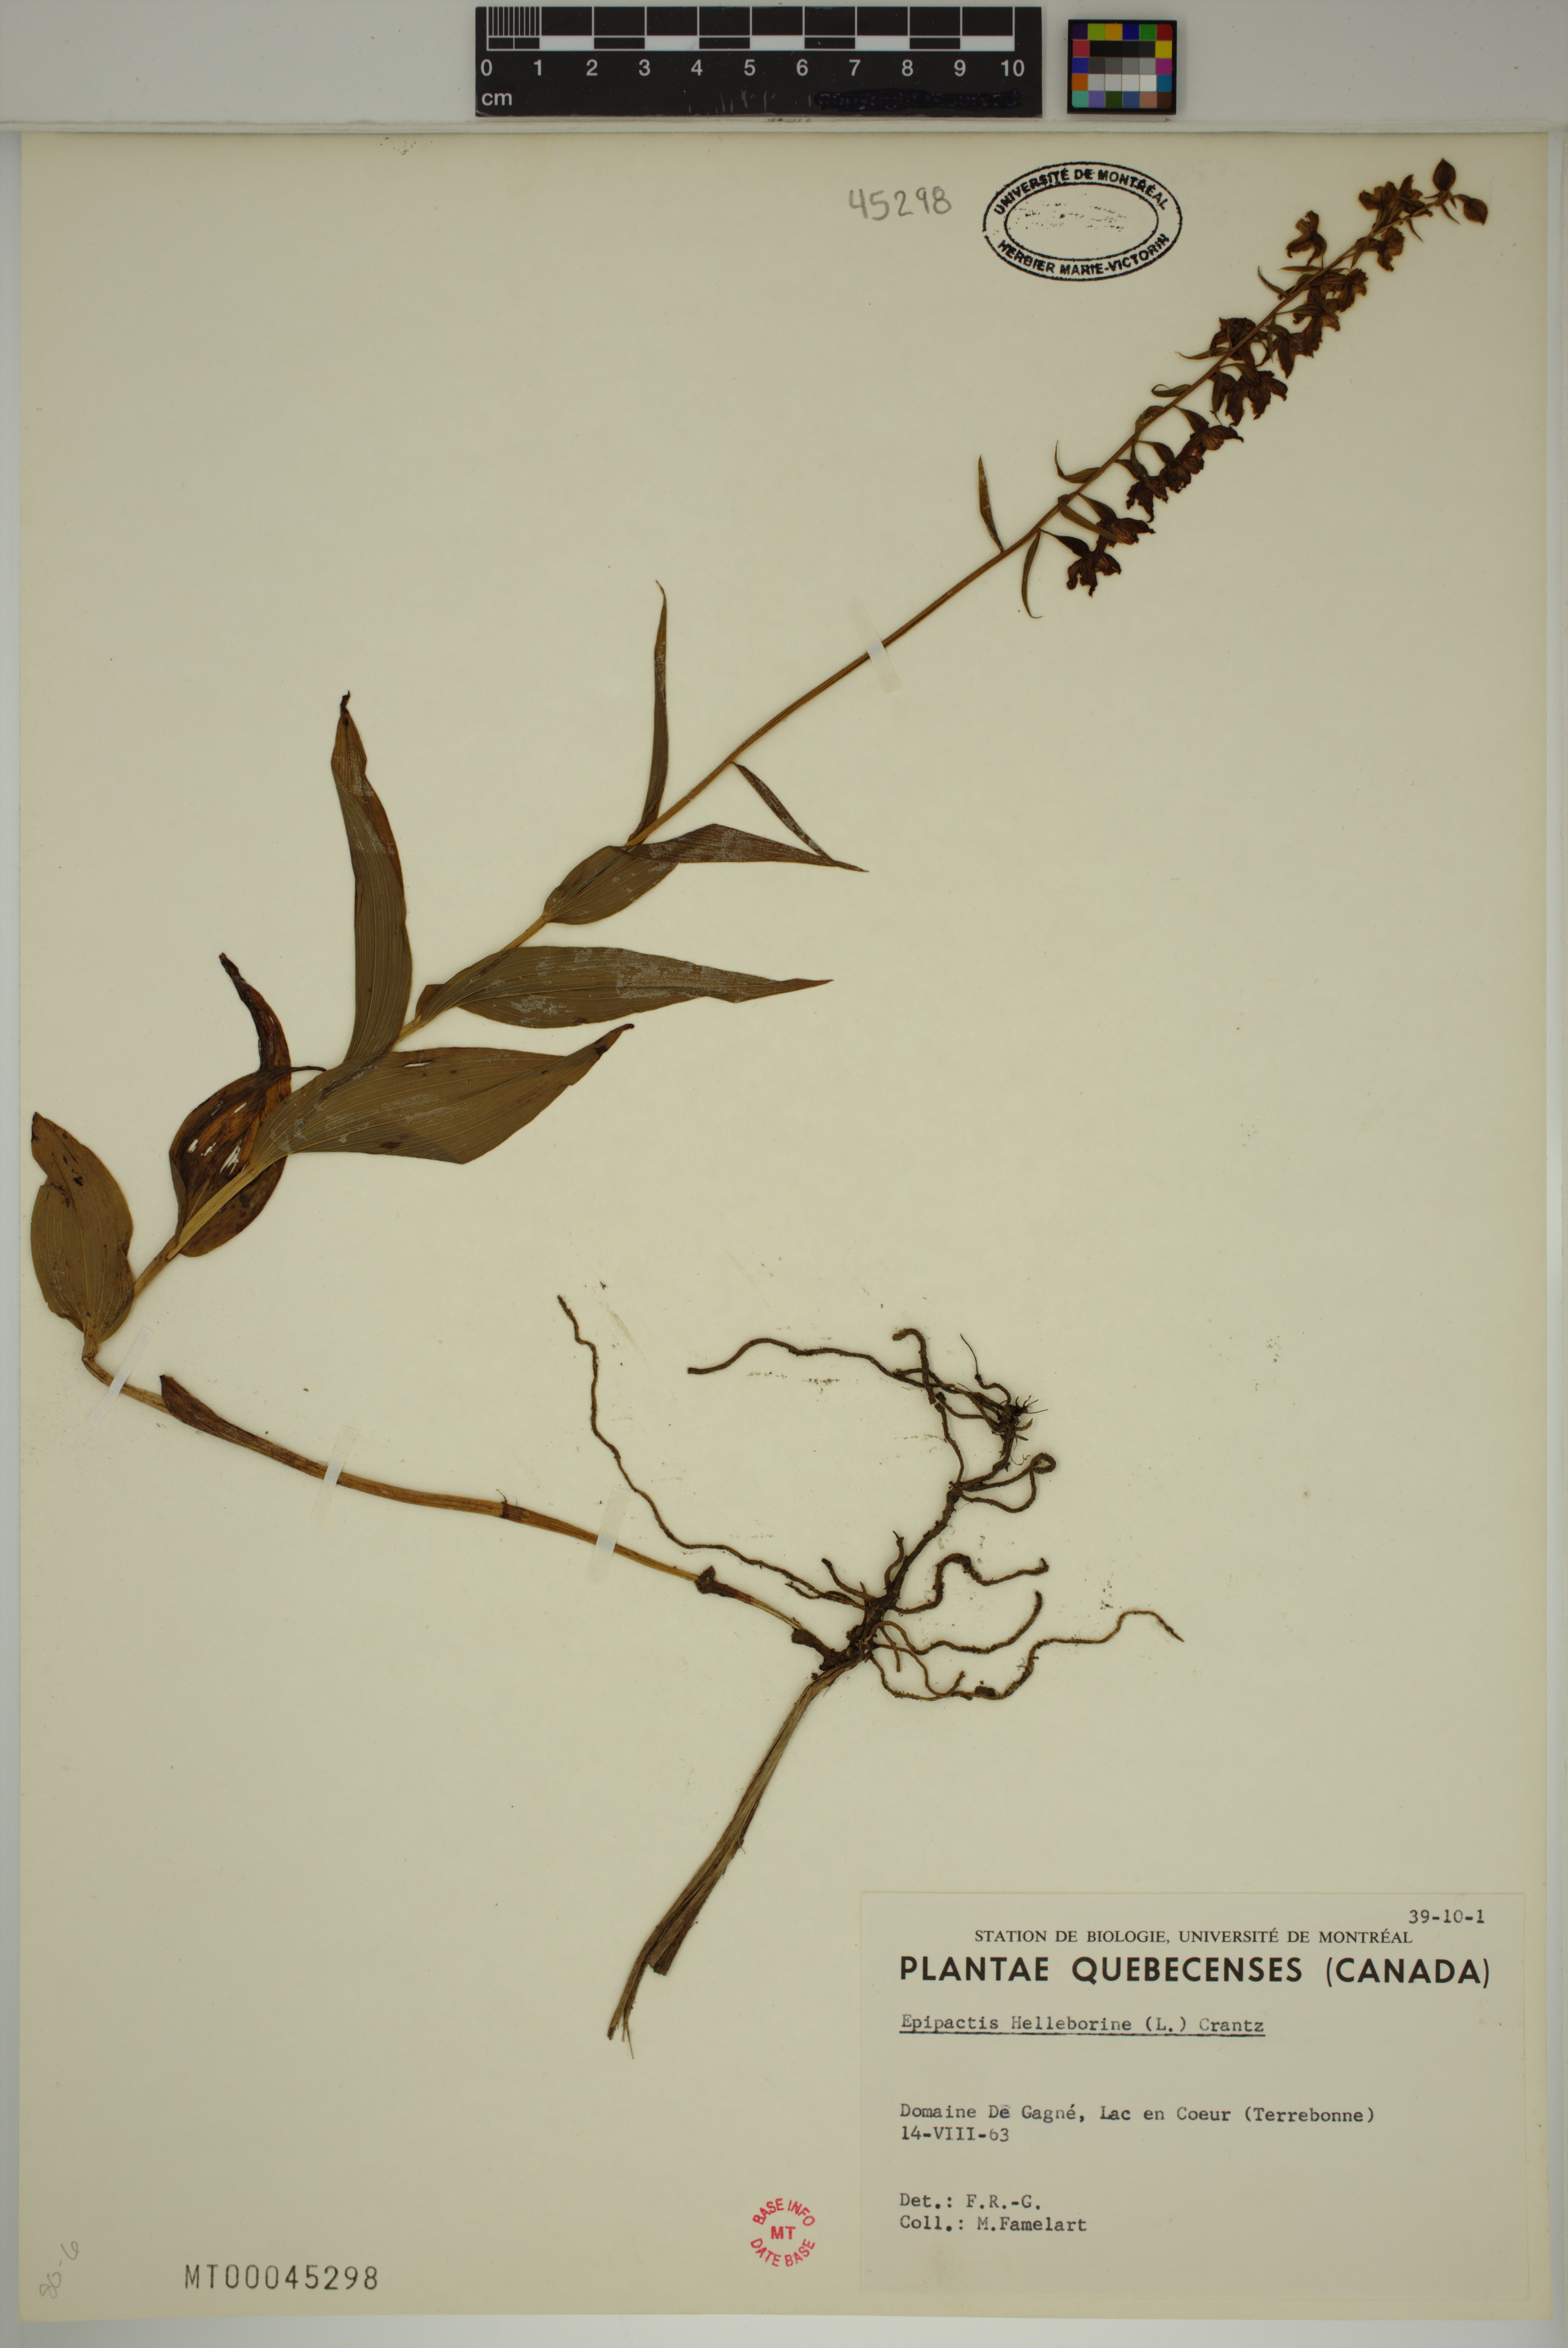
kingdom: Plantae
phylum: Tracheophyta
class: Liliopsida
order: Asparagales
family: Orchidaceae
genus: Epipactis
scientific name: Epipactis helleborine
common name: Broad-leaved helleborine
